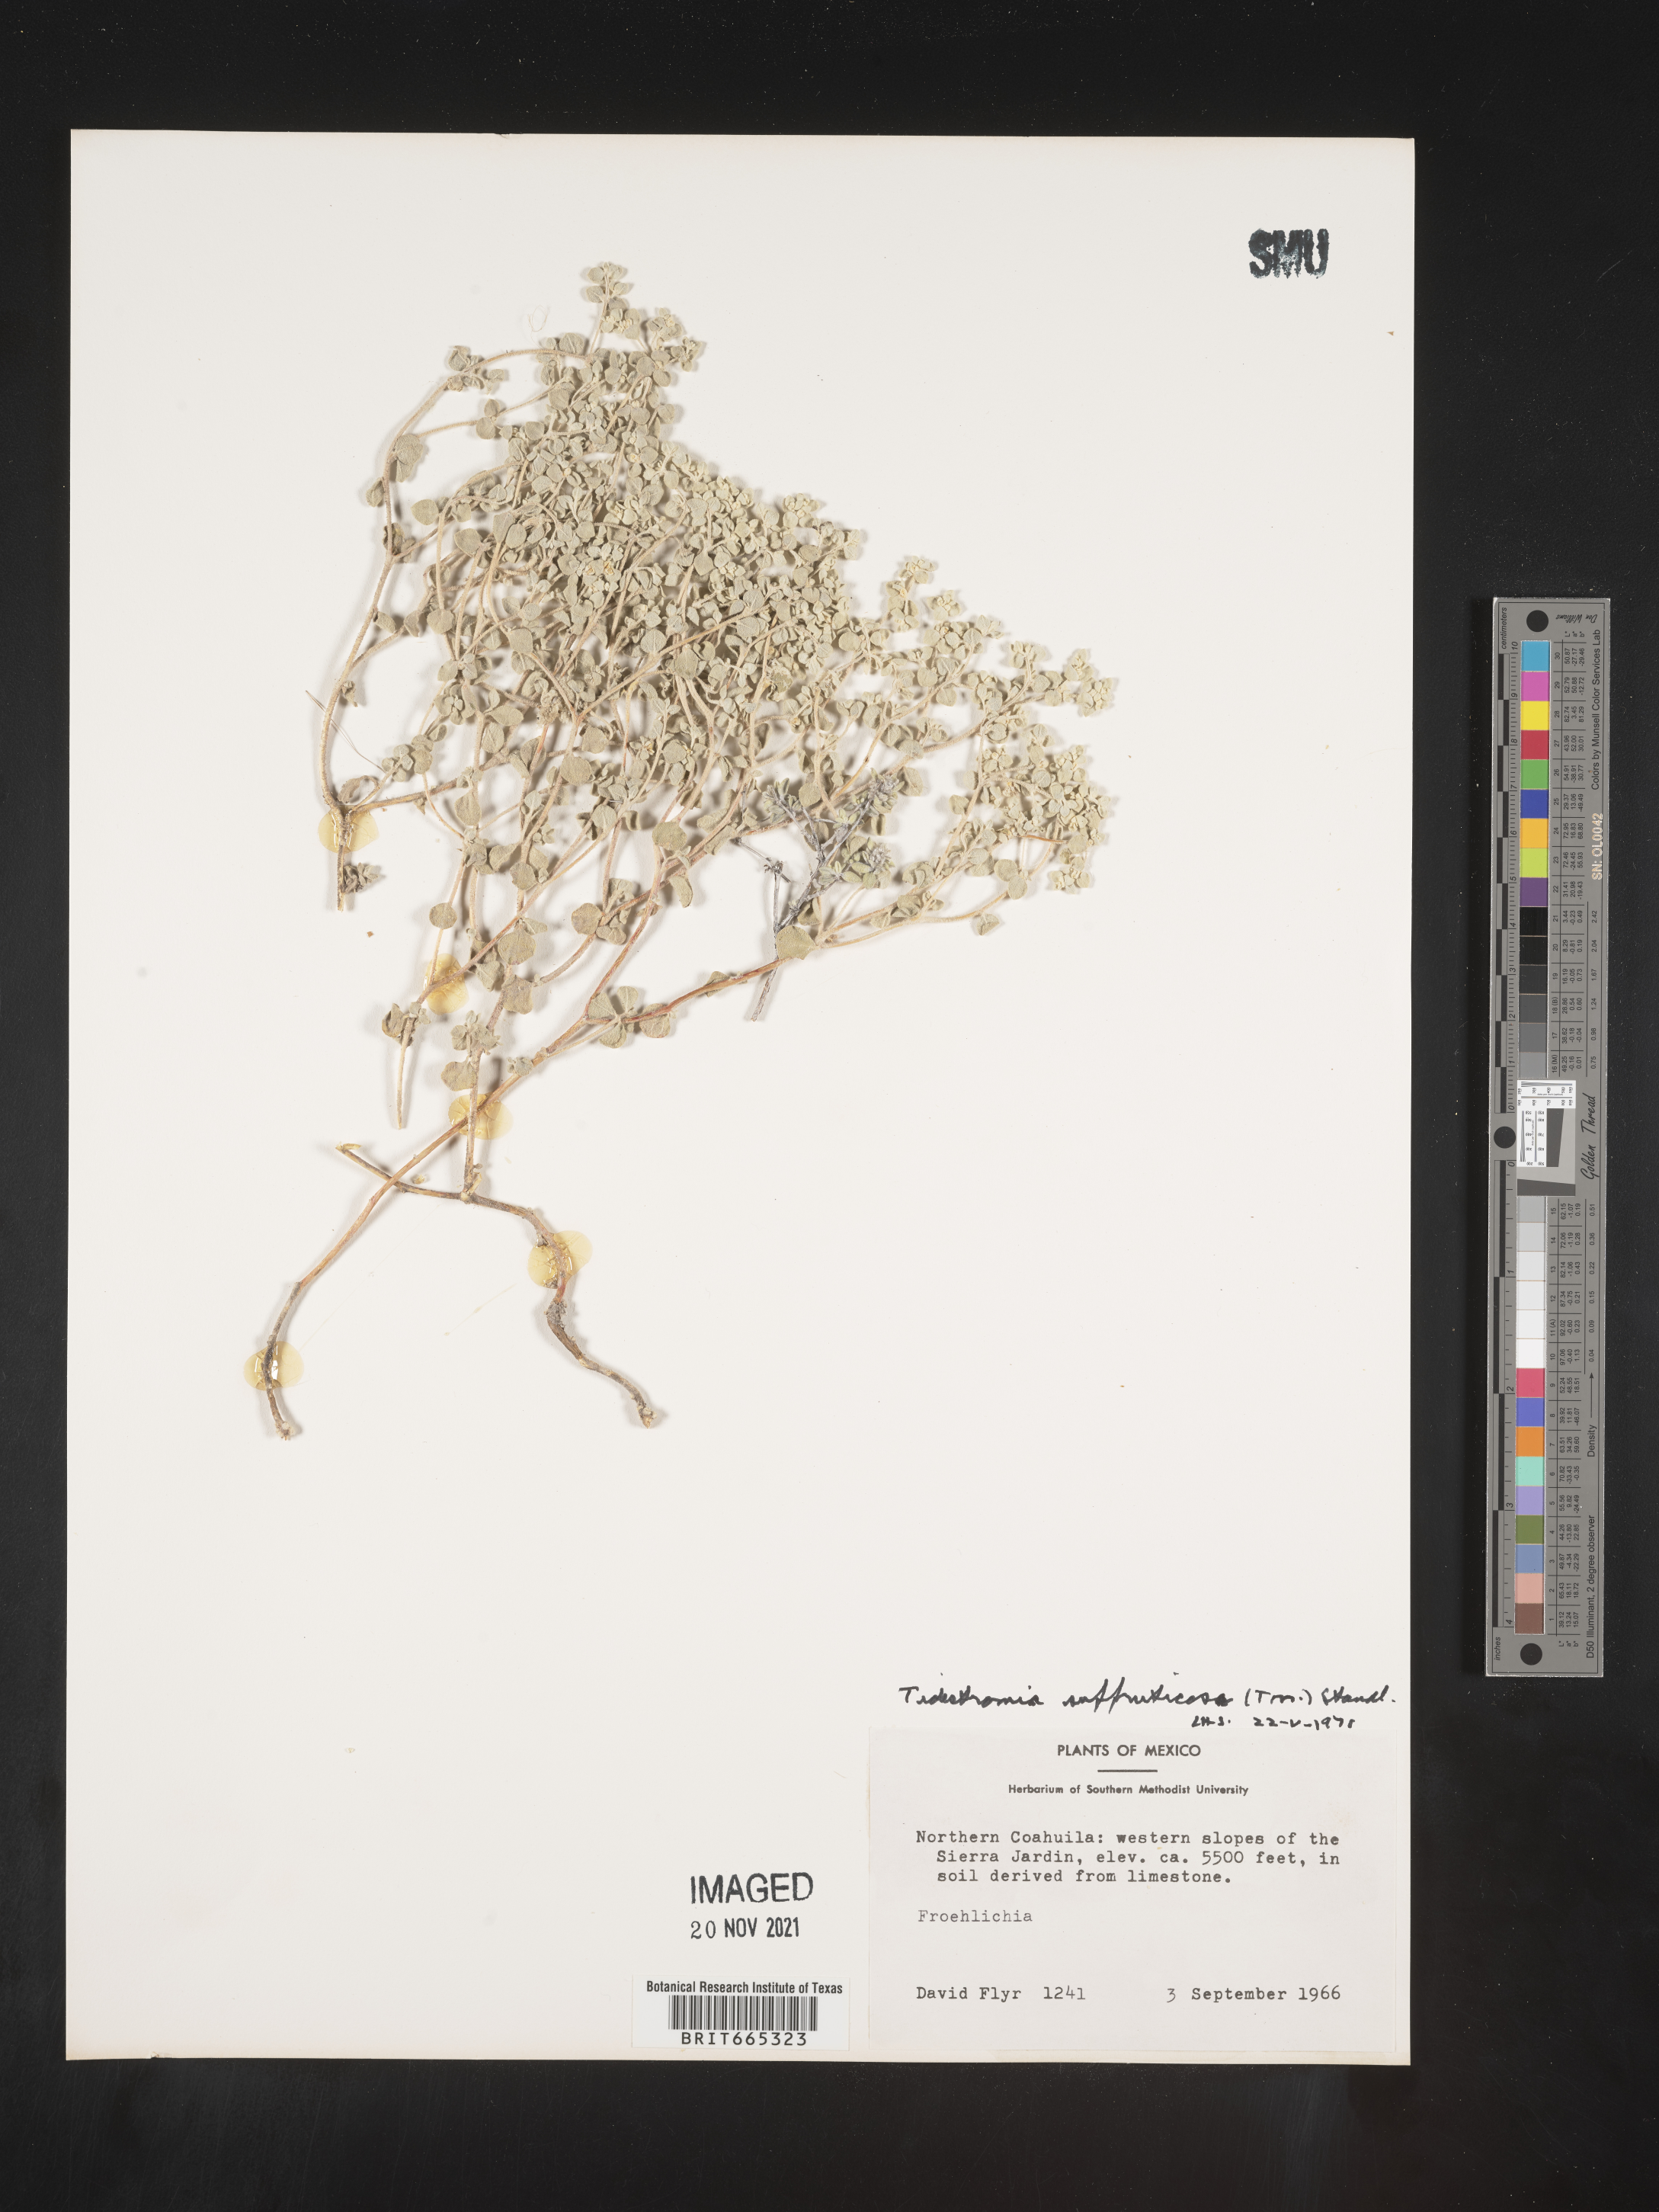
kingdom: Plantae
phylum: Tracheophyta
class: Magnoliopsida
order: Caryophyllales
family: Amaranthaceae
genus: Tidestromia
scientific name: Tidestromia
